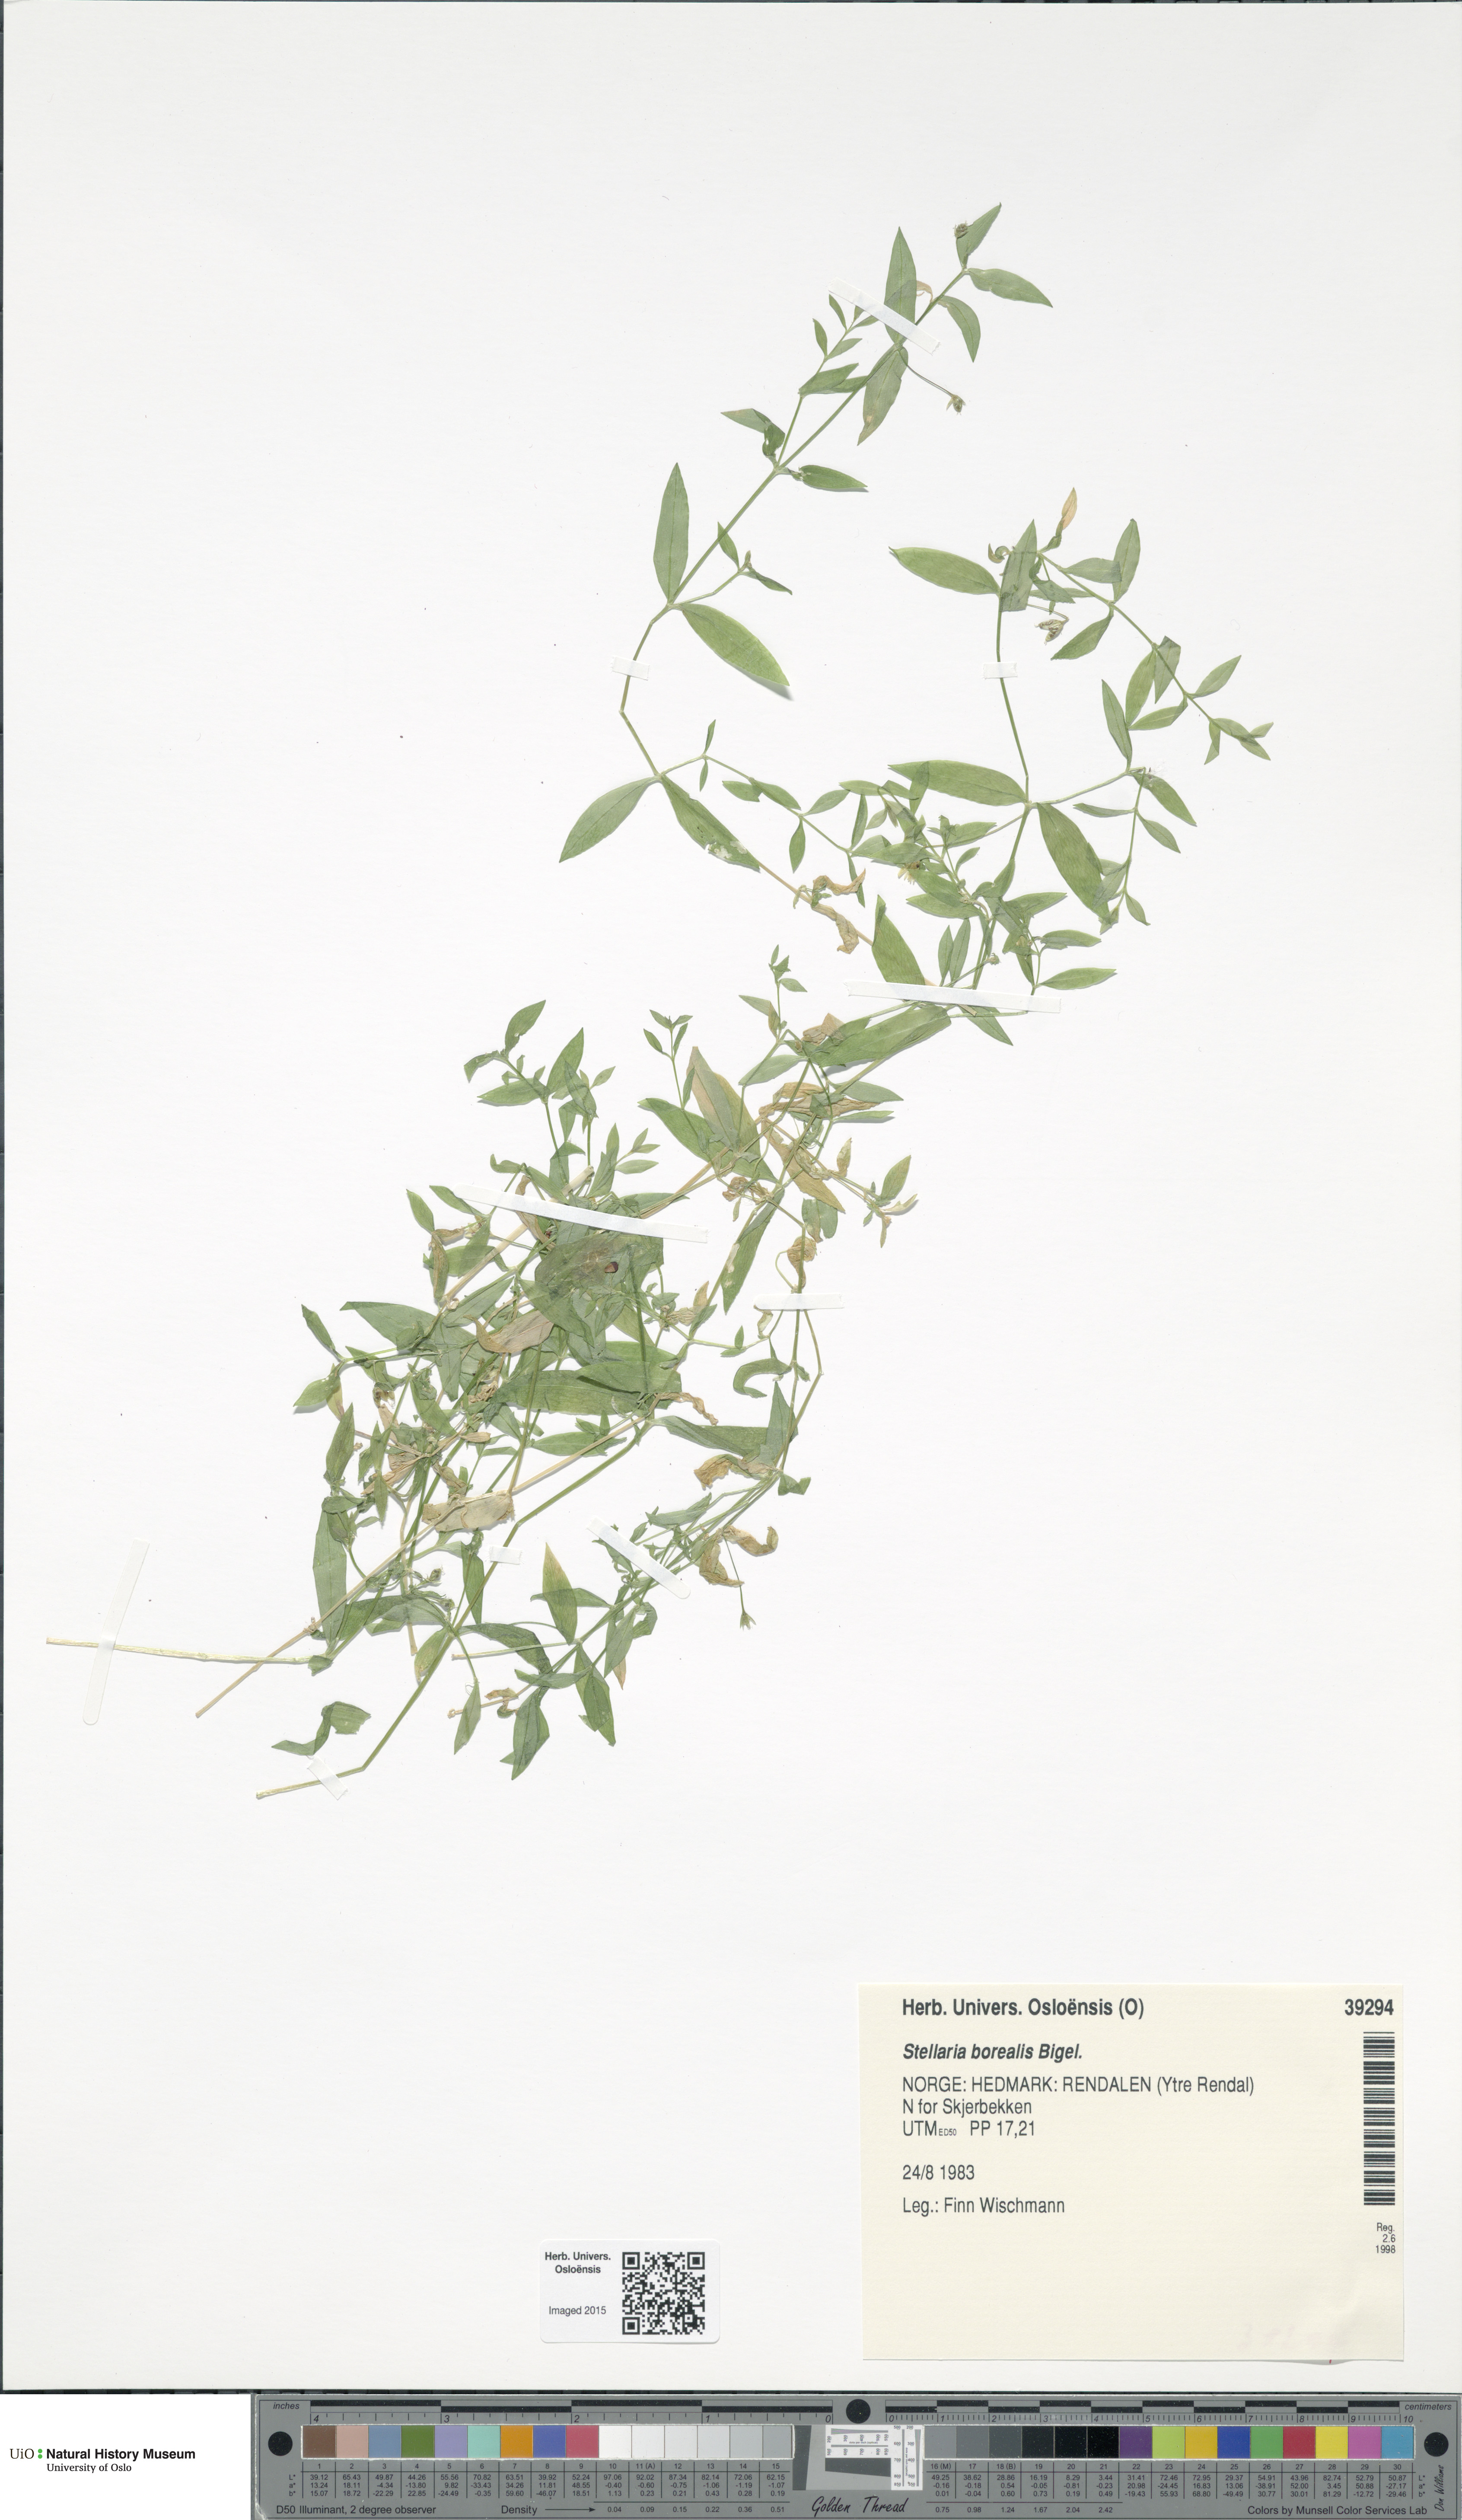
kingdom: Plantae
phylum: Tracheophyta
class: Magnoliopsida
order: Caryophyllales
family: Caryophyllaceae
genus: Stellaria
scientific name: Stellaria borealis
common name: Boreal starwort
